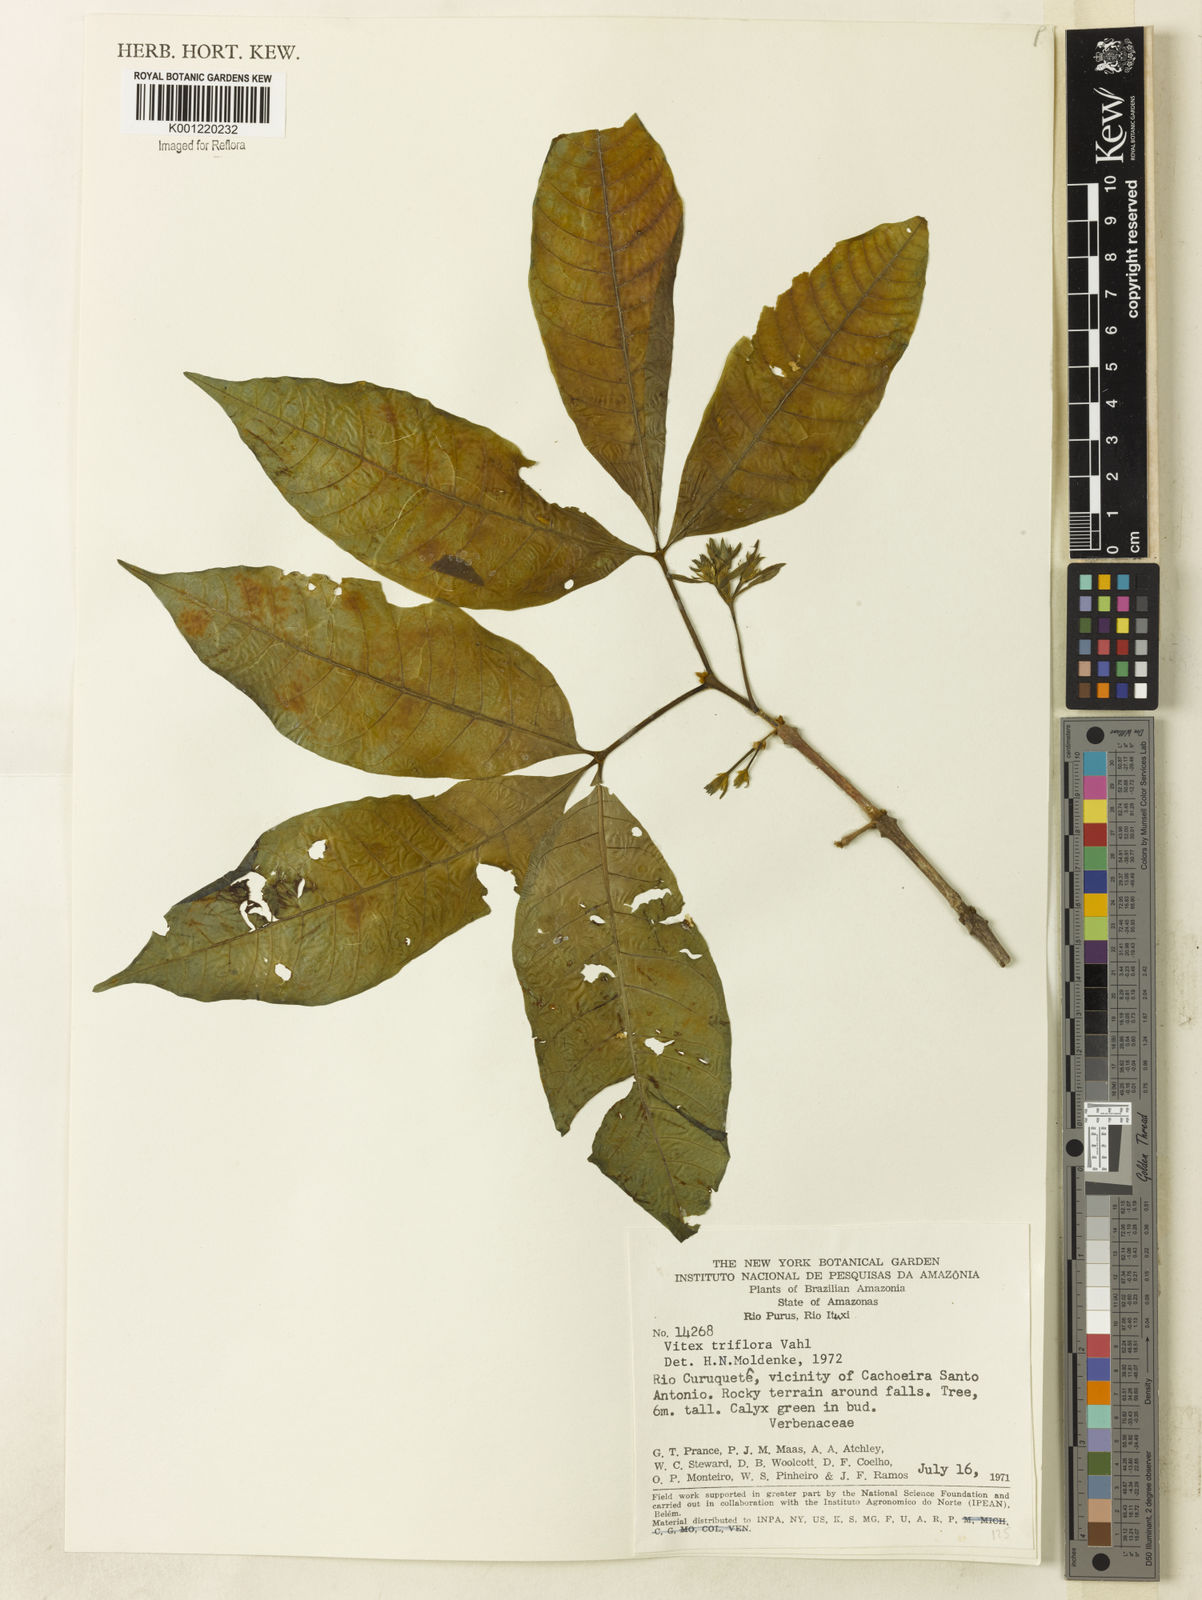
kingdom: Plantae
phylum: Tracheophyta
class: Magnoliopsida
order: Lamiales
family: Lamiaceae
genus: Vitex
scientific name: Vitex triflora
